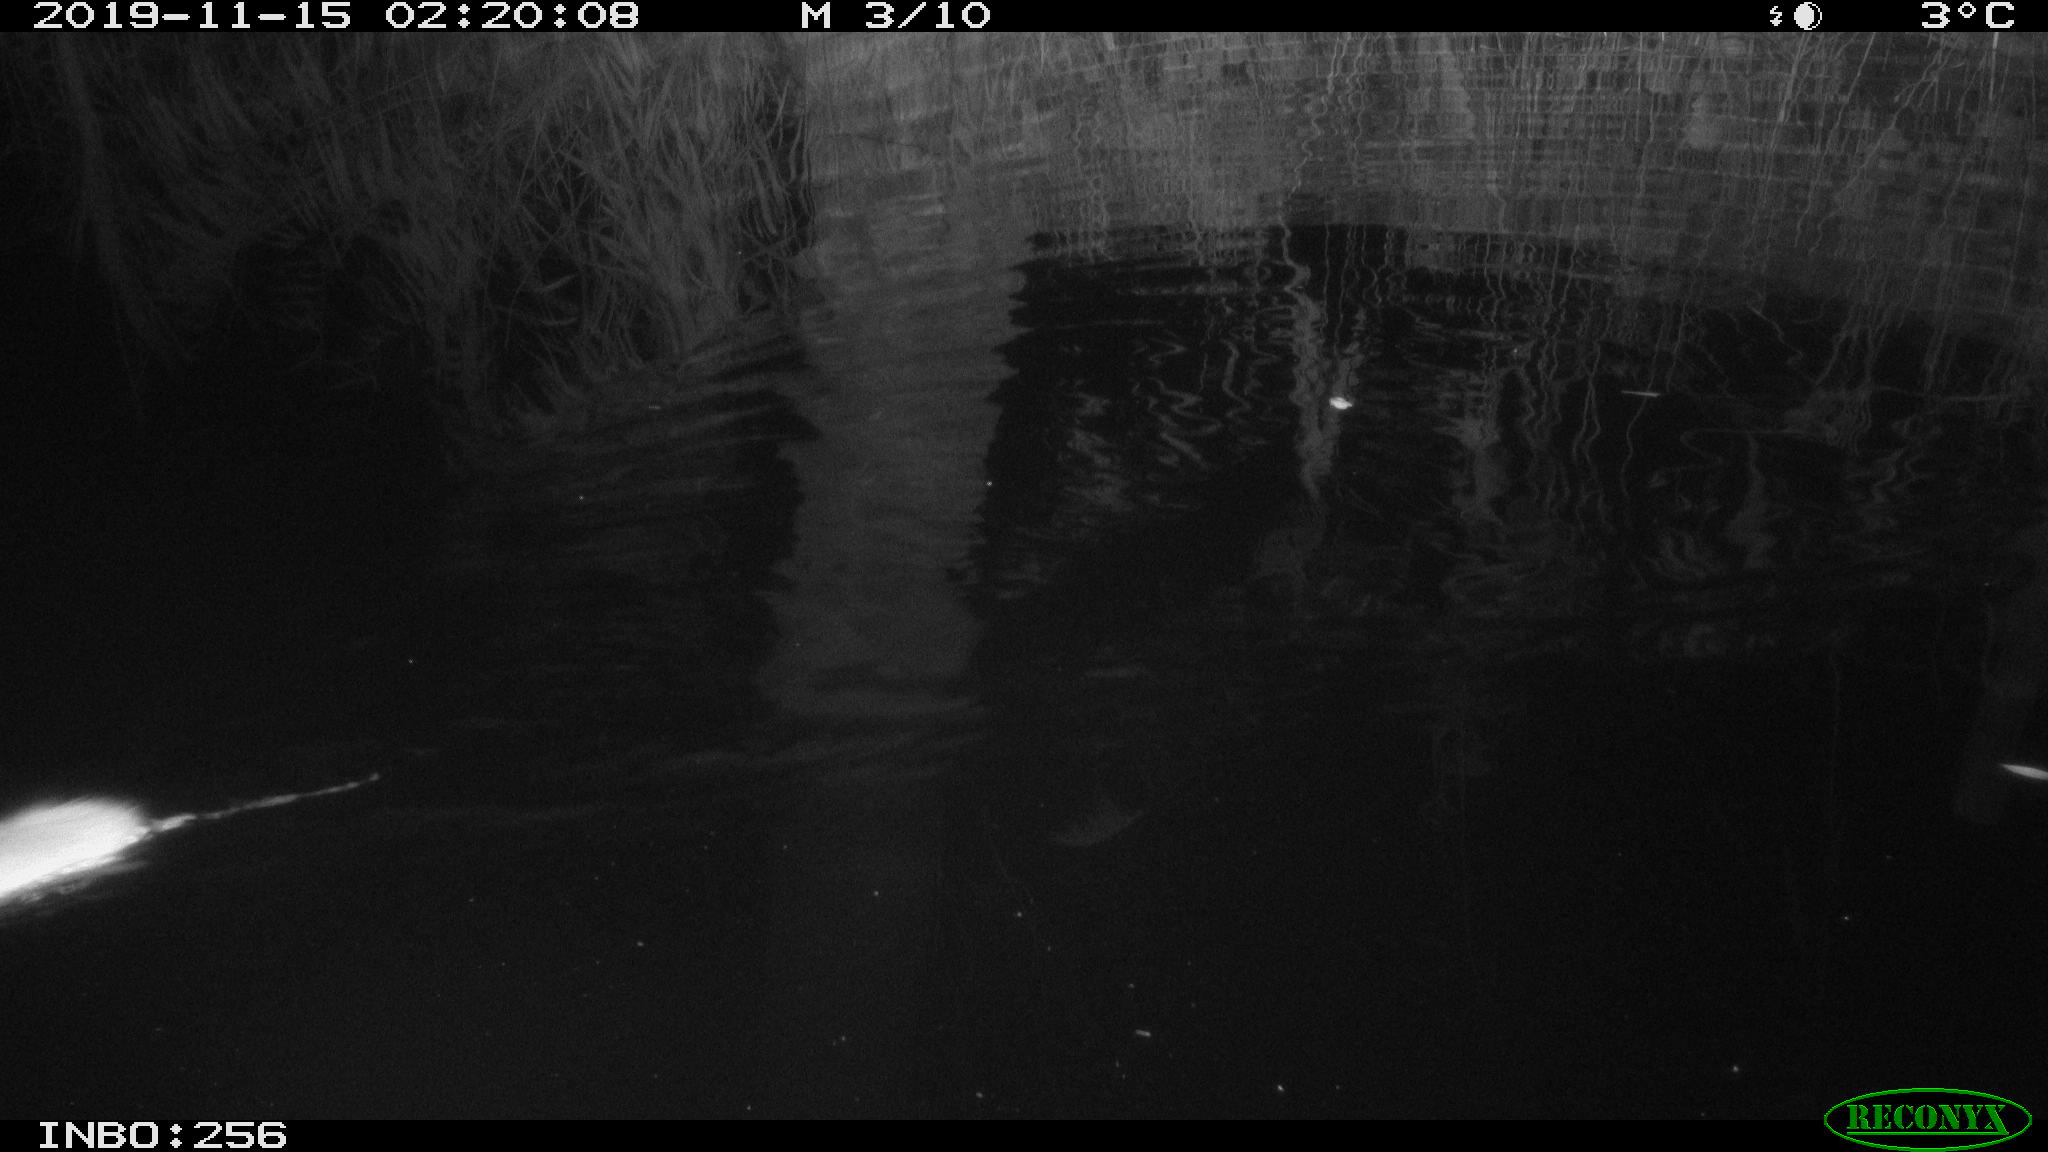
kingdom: Animalia
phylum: Chordata
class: Mammalia
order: Rodentia
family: Muridae
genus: Rattus
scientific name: Rattus norvegicus
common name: Brown rat
